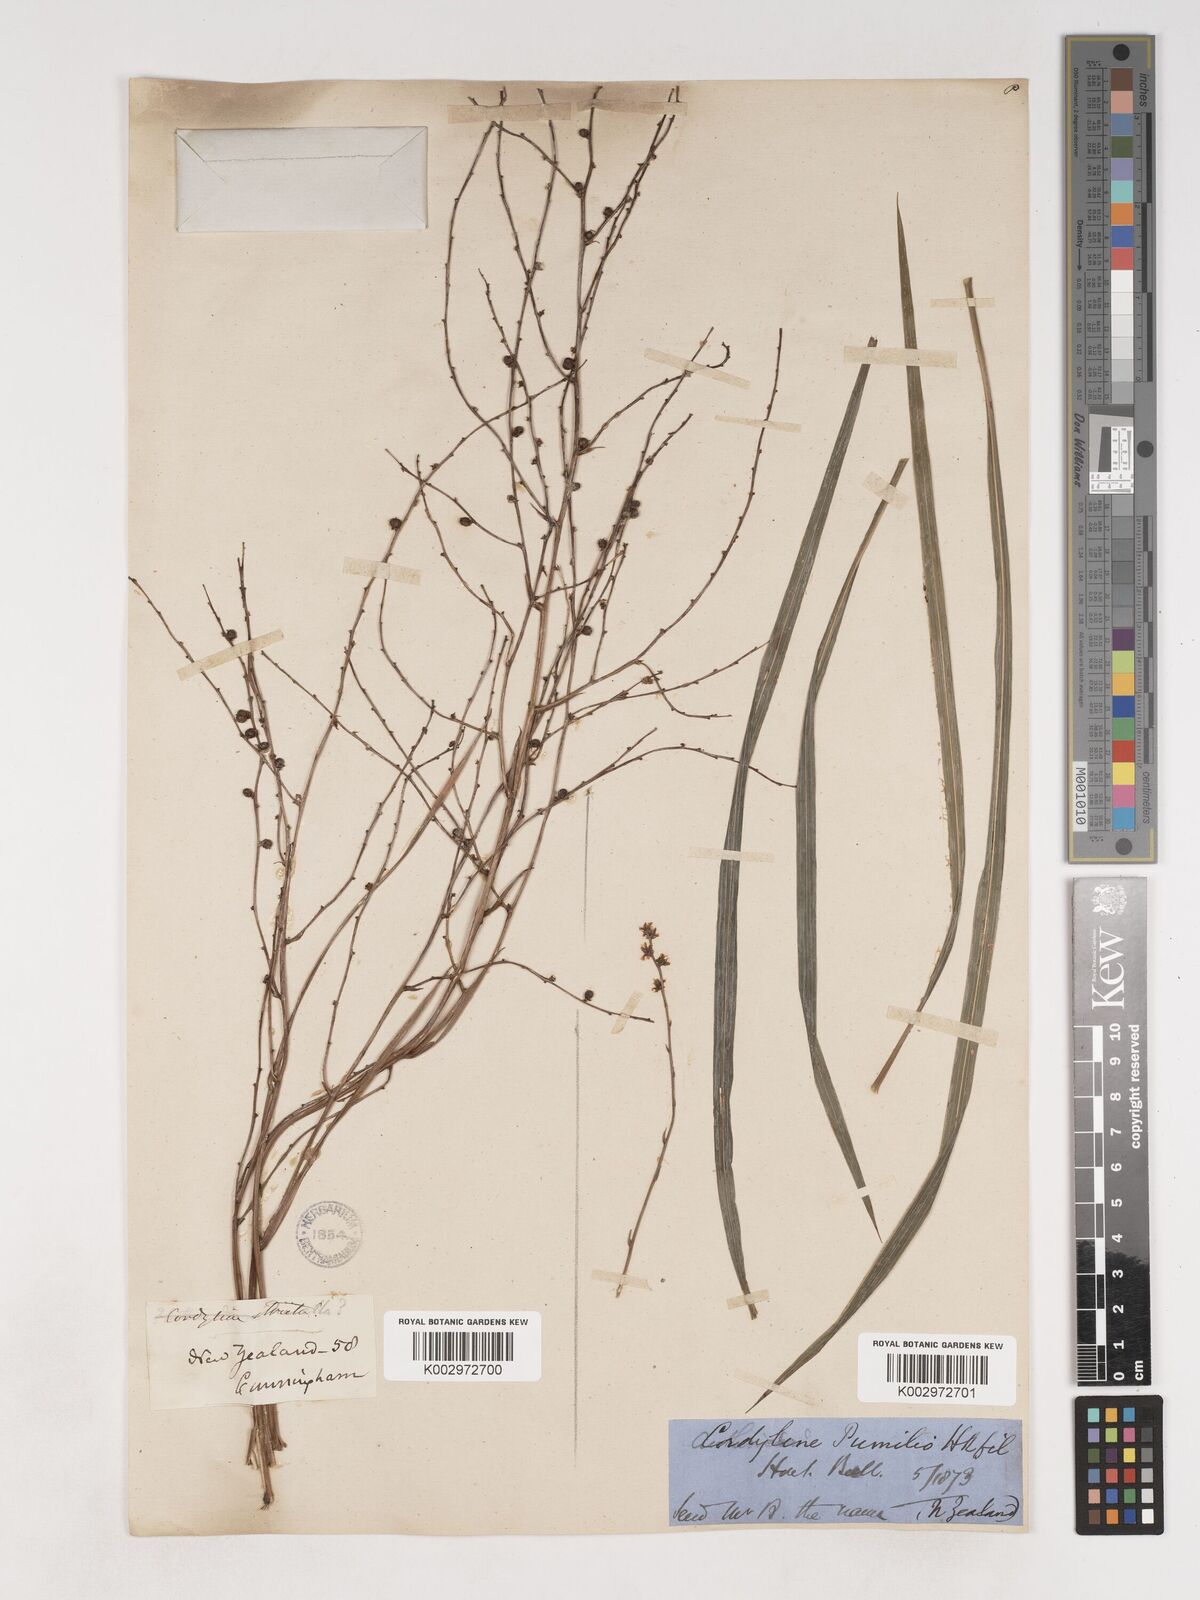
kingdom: Plantae
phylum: Tracheophyta
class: Liliopsida
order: Asparagales
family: Asparagaceae
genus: Cordyline
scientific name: Cordyline pumilio
